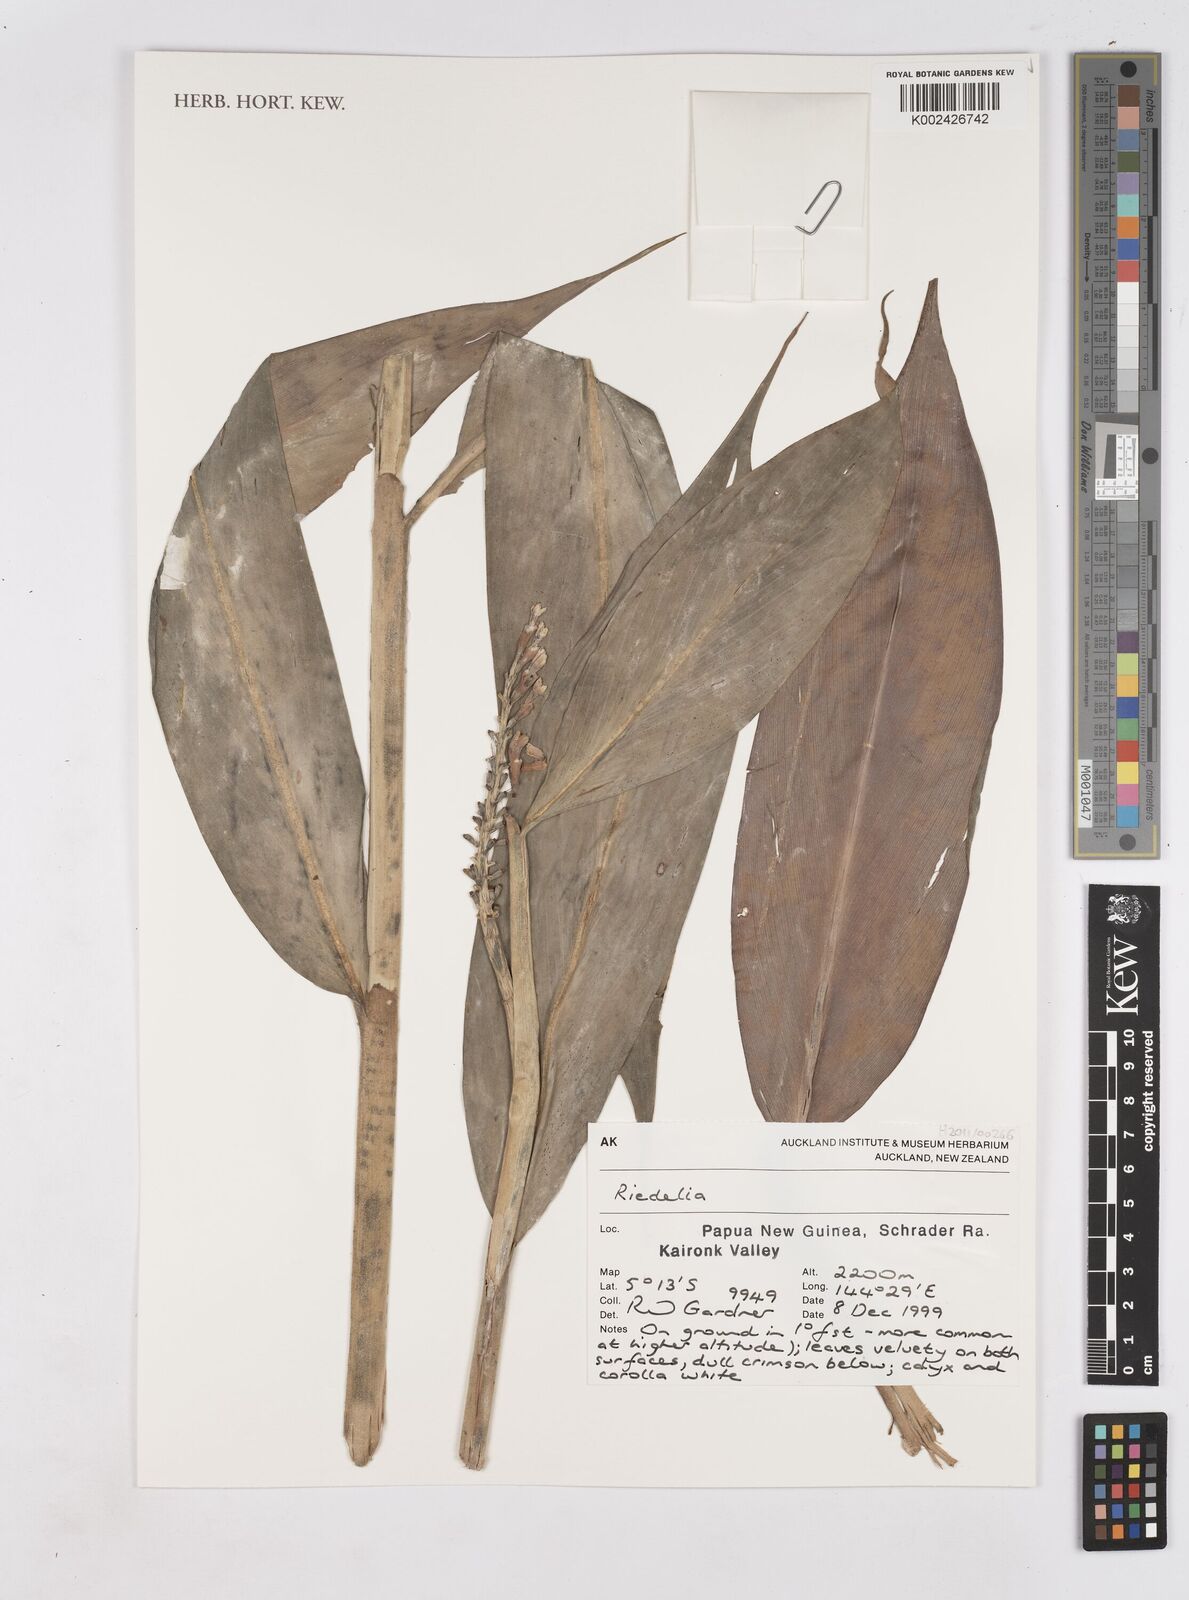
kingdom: Plantae
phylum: Tracheophyta
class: Liliopsida
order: Zingiberales
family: Zingiberaceae
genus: Riedelia
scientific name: Riedelia
